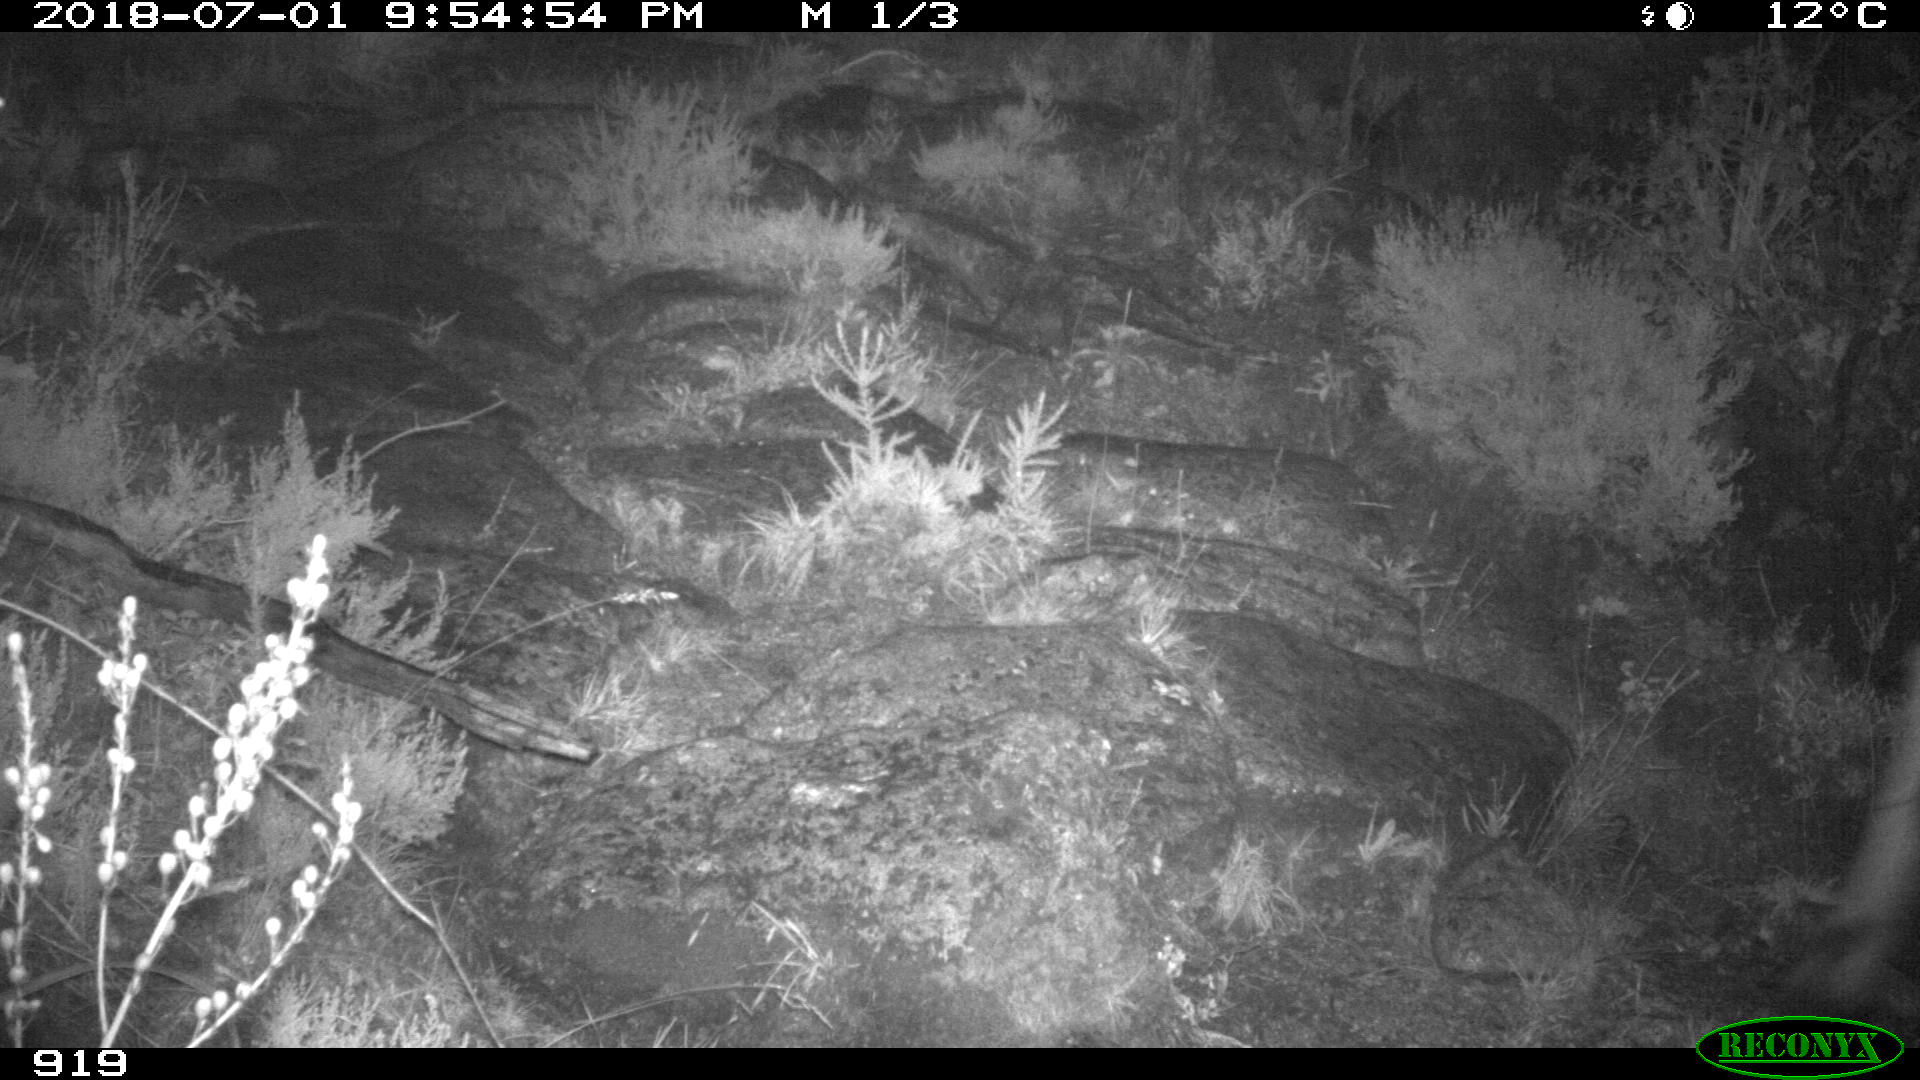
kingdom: Animalia
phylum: Chordata
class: Mammalia
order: Artiodactyla
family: Bovidae
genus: Bos
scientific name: Bos taurus
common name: Domesticated cattle
